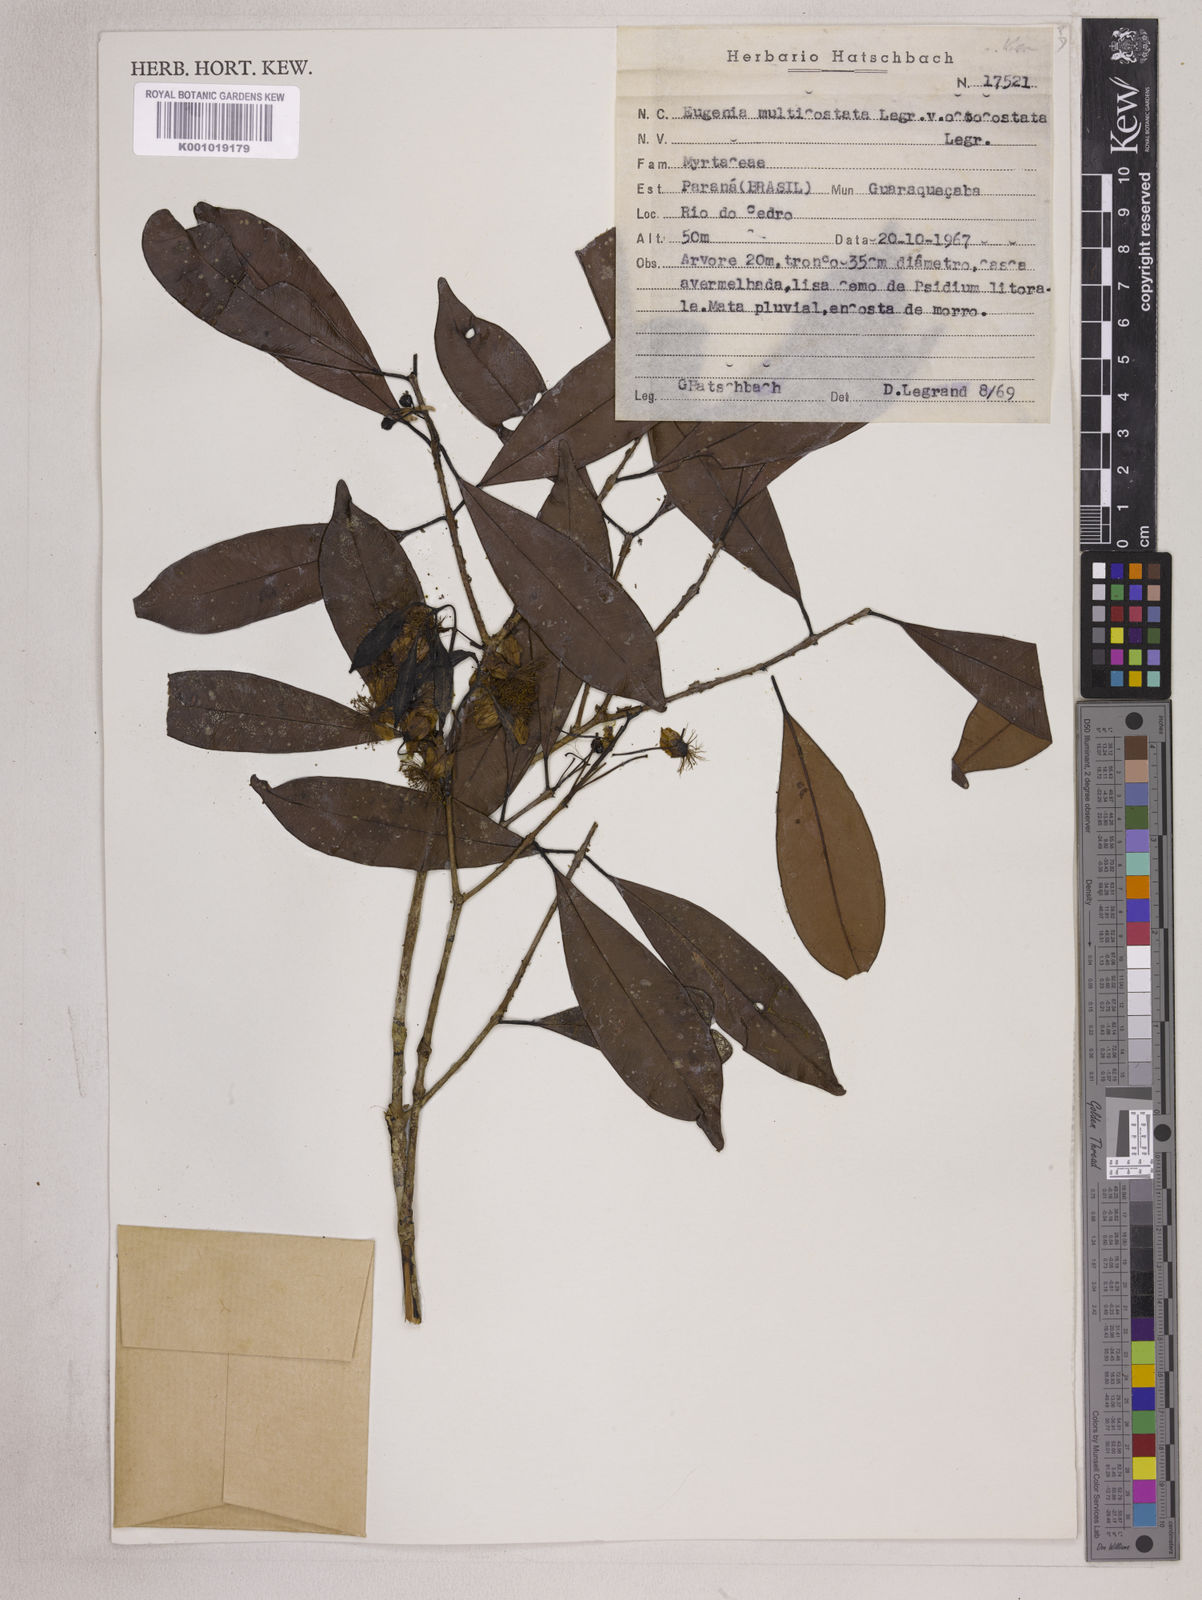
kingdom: Plantae
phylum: Tracheophyta
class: Magnoliopsida
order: Myrtales
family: Myrtaceae
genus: Eugenia
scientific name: Eugenia multicostata
